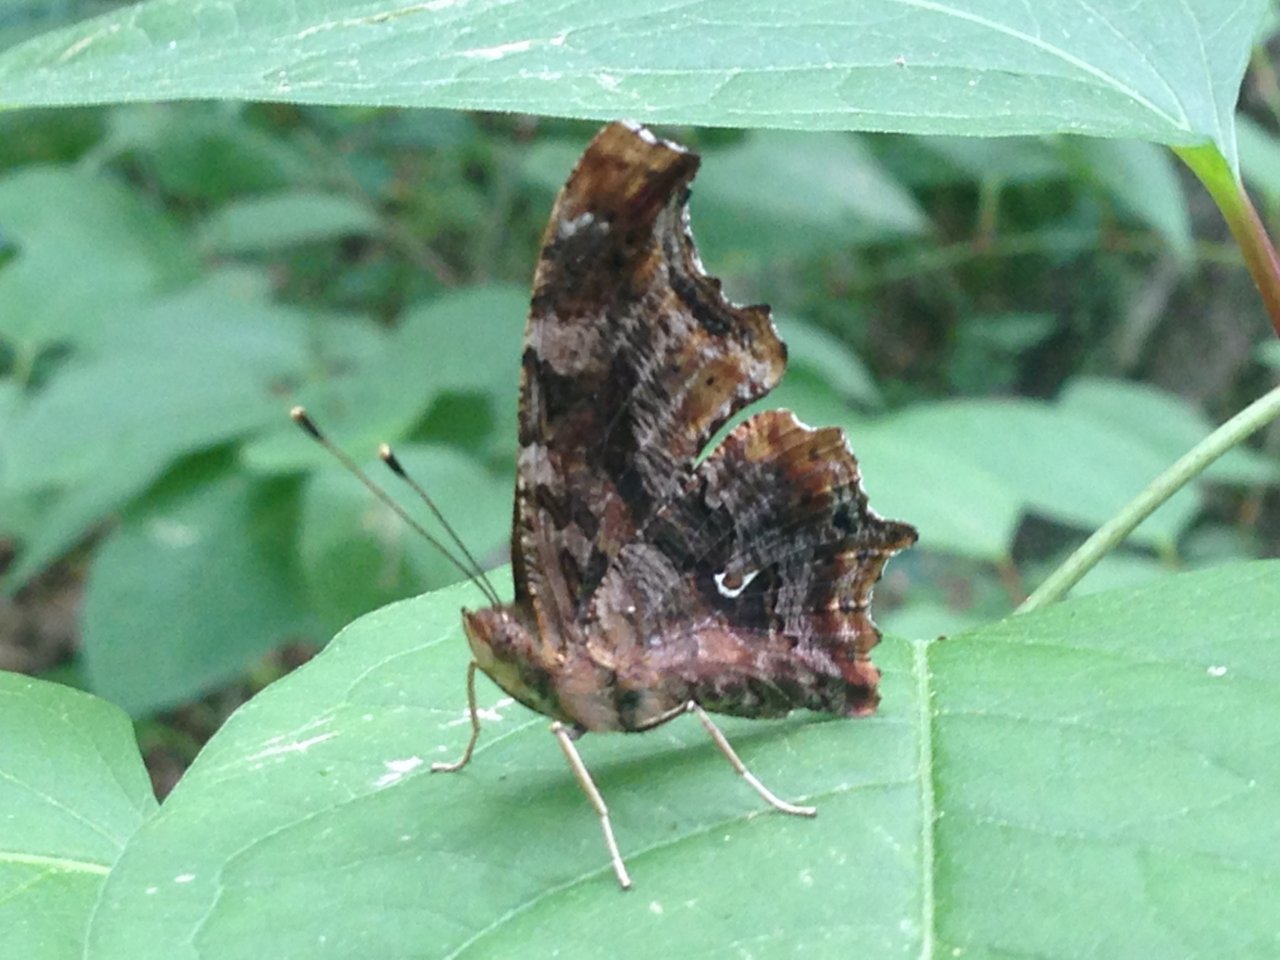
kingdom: Animalia
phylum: Arthropoda
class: Insecta
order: Lepidoptera
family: Nymphalidae
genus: Polygonia
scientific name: Polygonia comma
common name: Eastern Comma
